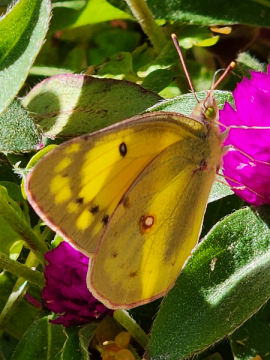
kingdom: Animalia
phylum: Arthropoda
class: Insecta
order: Lepidoptera
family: Pieridae
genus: Colias
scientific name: Colias philodice
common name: Clouded Sulphur
